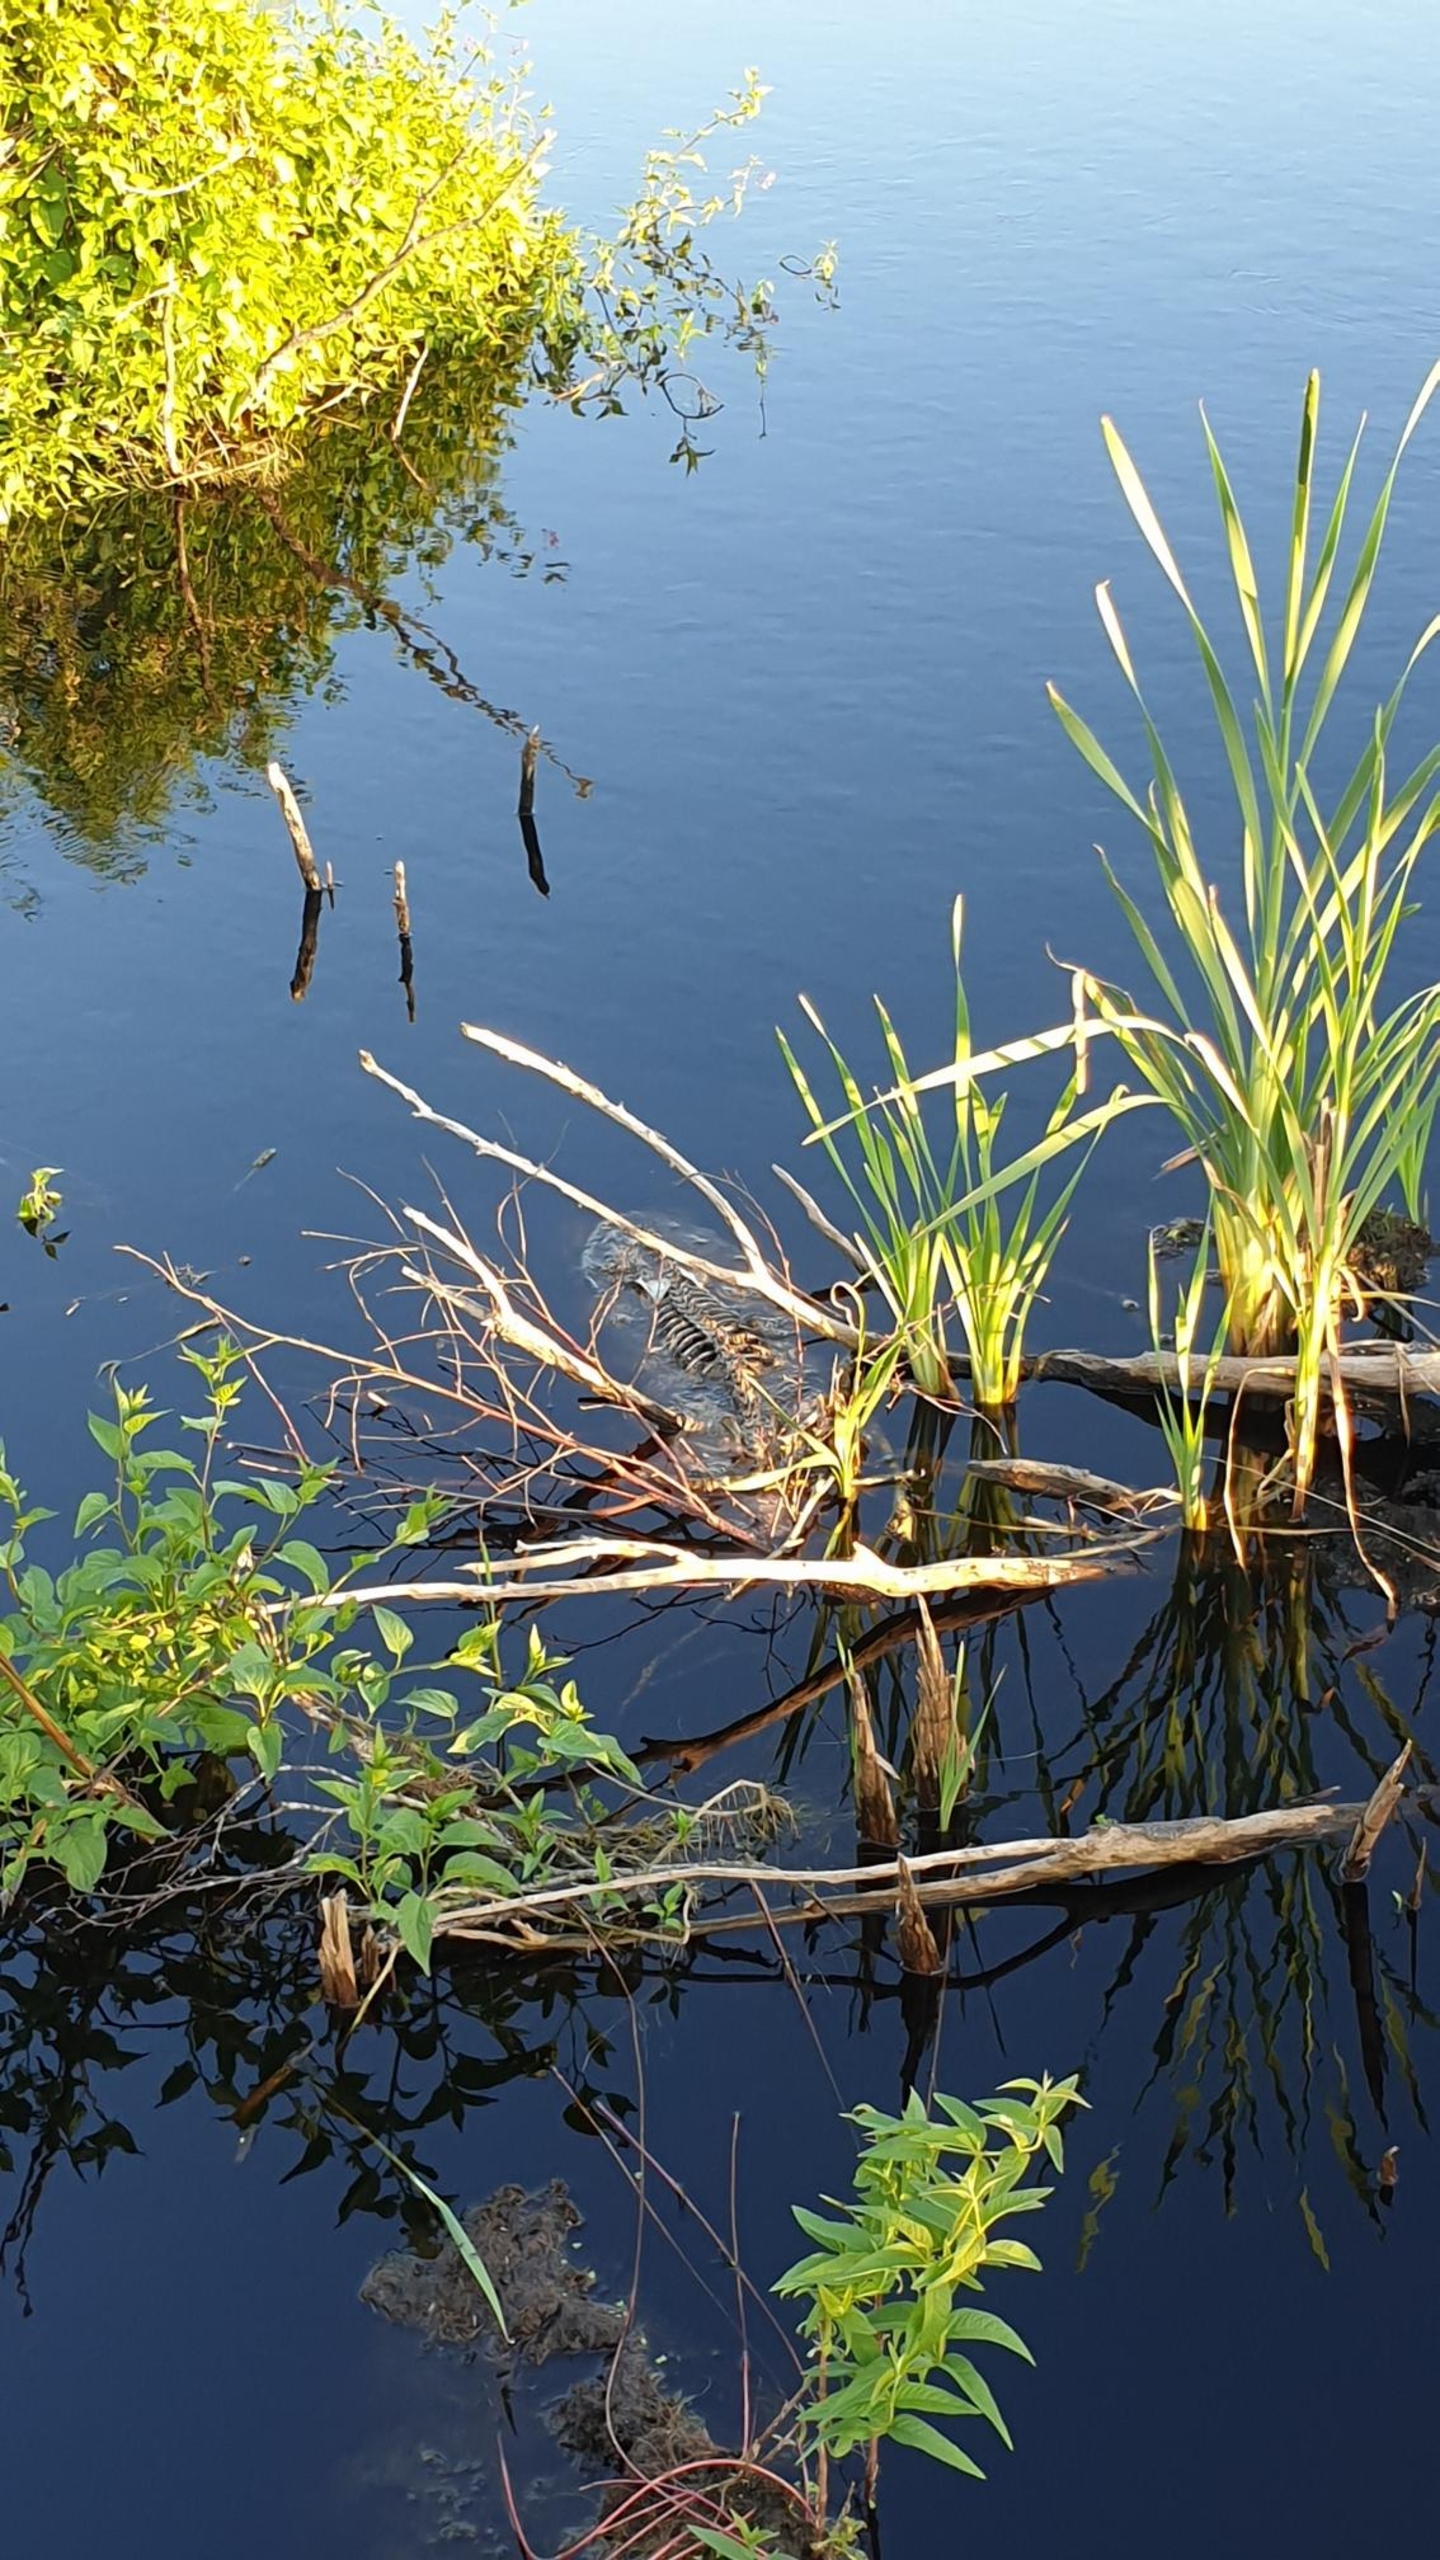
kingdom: Animalia
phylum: Chordata
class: Mammalia
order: Carnivora
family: Mustelidae
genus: Lutra
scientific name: Lutra lutra
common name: Odder
